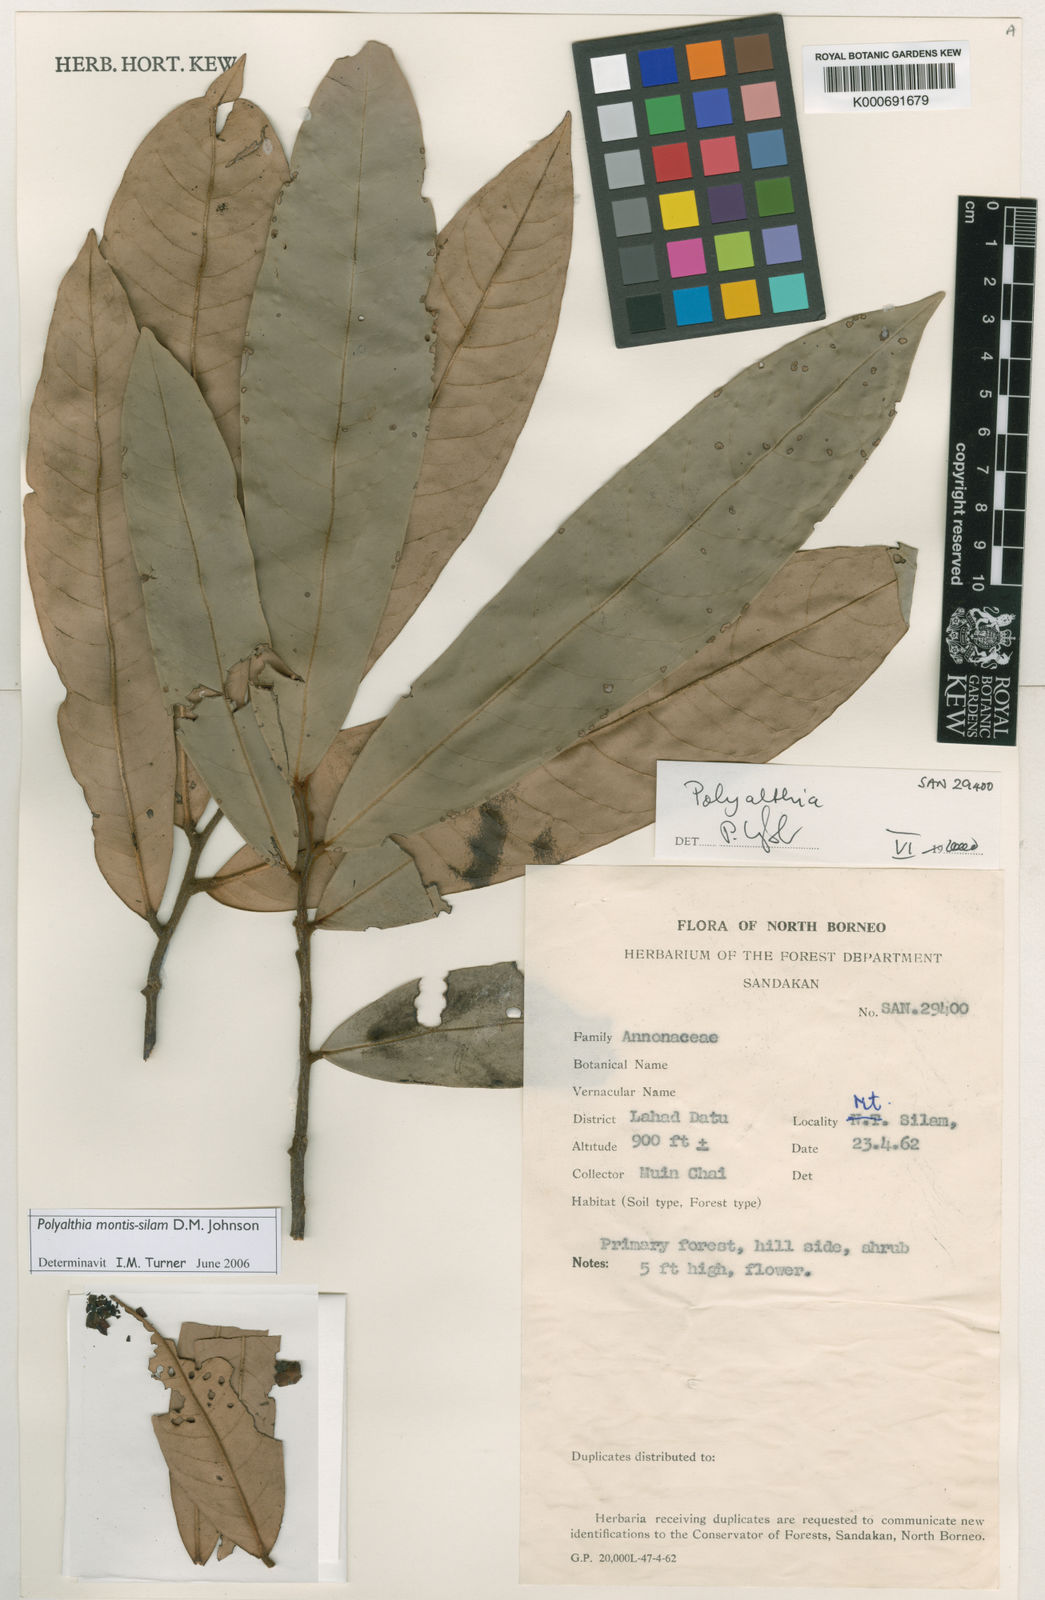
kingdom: Plantae
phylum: Tracheophyta
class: Magnoliopsida
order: Magnoliales
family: Annonaceae
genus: Polyalthia
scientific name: Polyalthia montis-silam
